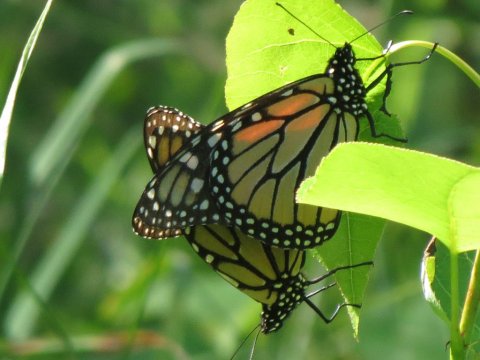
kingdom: Animalia
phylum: Arthropoda
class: Insecta
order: Lepidoptera
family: Nymphalidae
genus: Danaus
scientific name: Danaus plexippus
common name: Monarch
